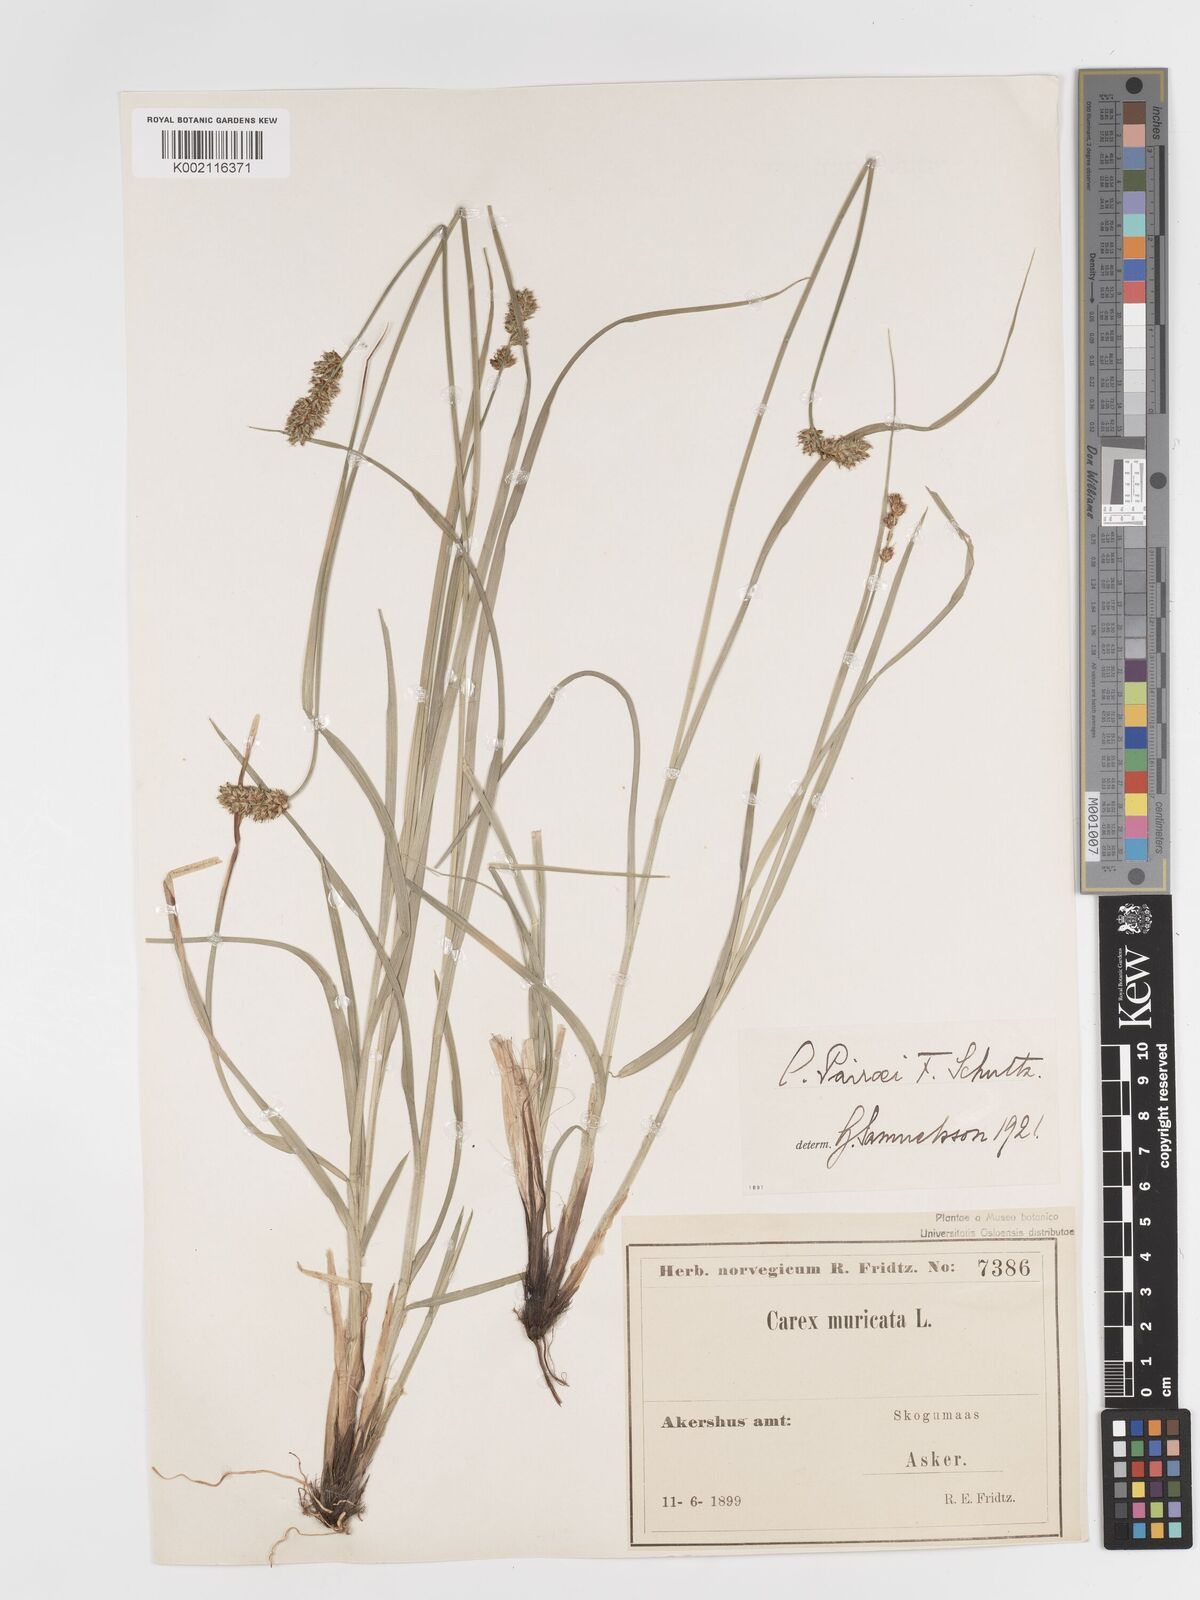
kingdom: Plantae
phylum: Tracheophyta
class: Liliopsida
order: Poales
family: Cyperaceae
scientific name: Cyperaceae
